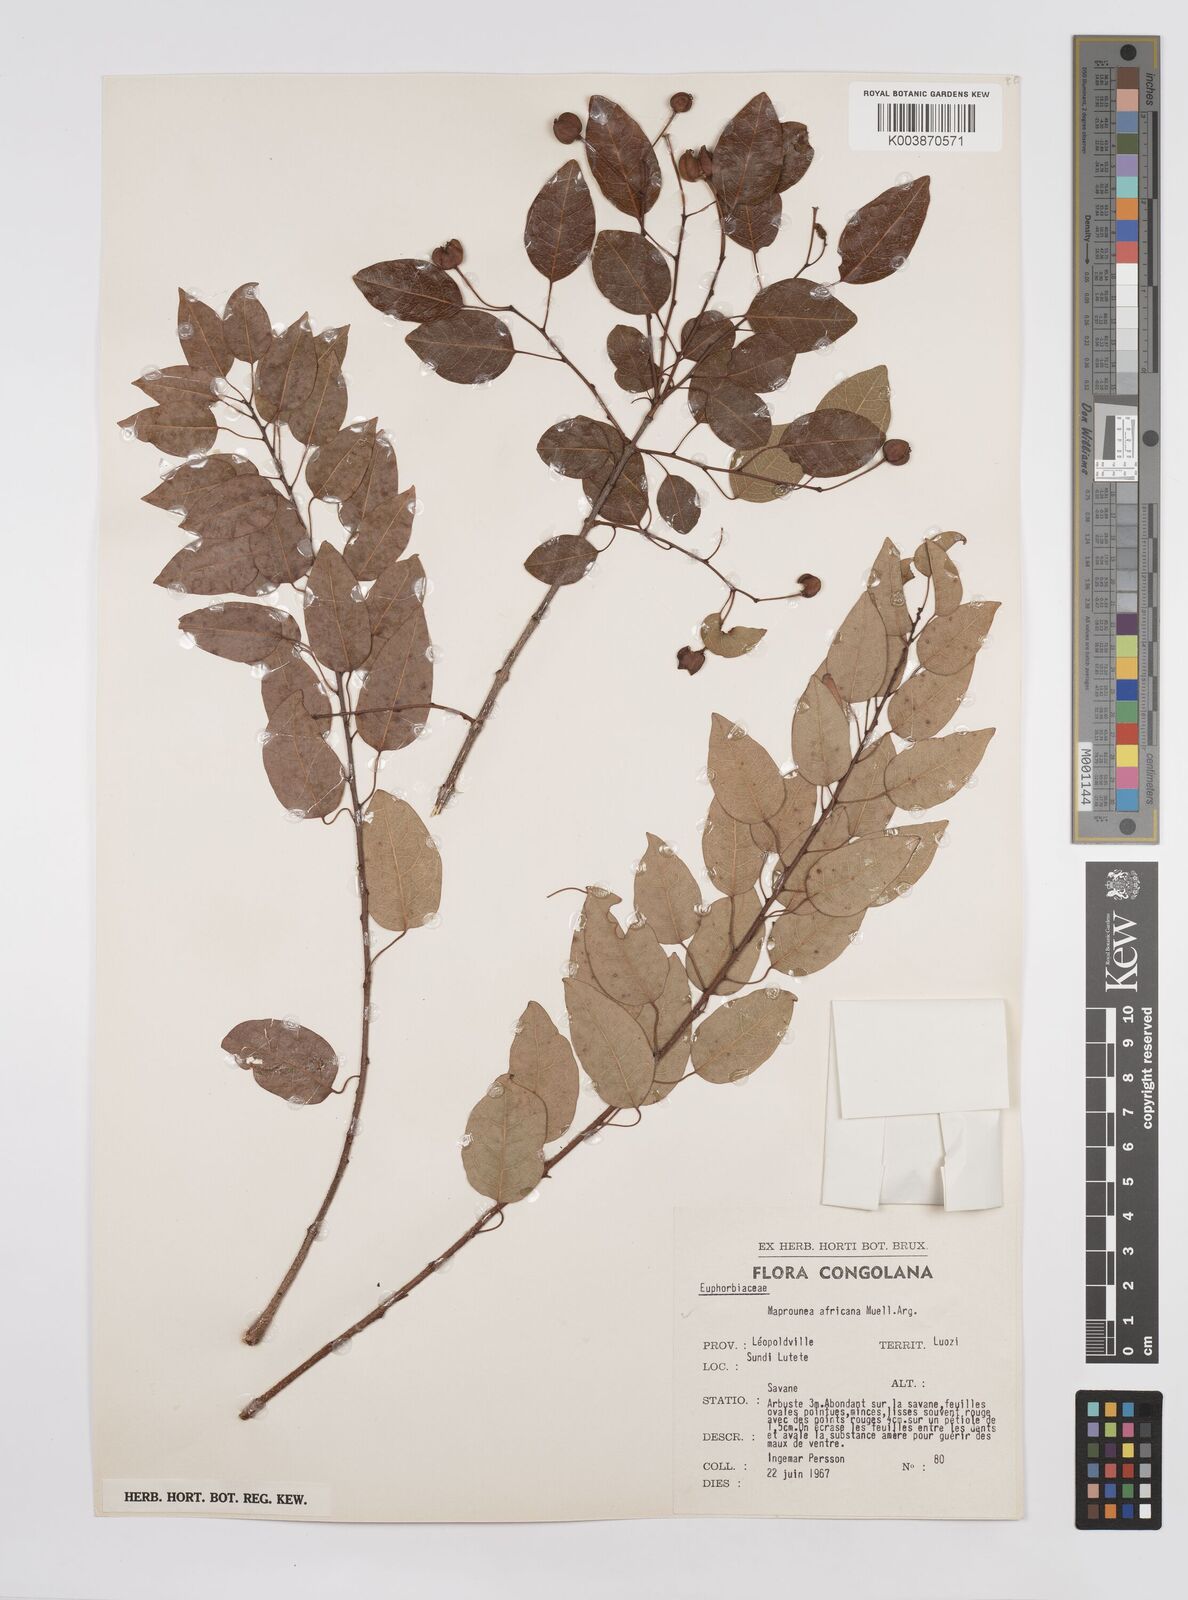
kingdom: Plantae
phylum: Tracheophyta
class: Magnoliopsida
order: Malpighiales
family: Euphorbiaceae
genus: Maprounea
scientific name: Maprounea africana
